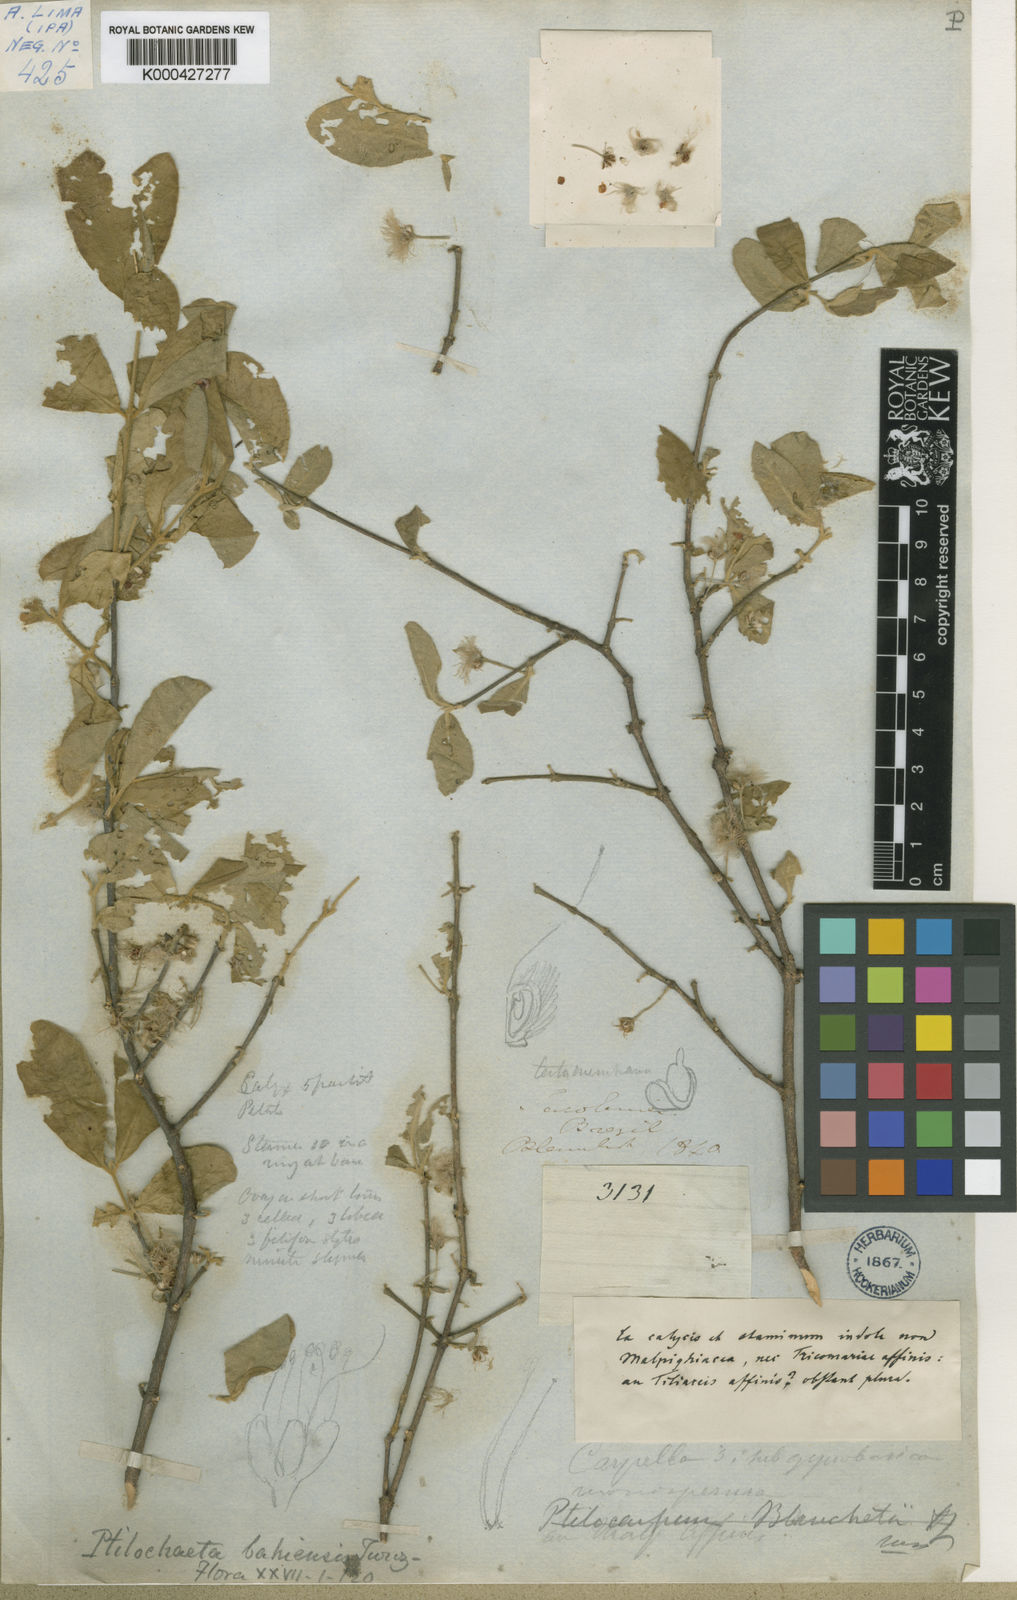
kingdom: Plantae
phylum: Tracheophyta
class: Magnoliopsida
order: Malpighiales
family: Malpighiaceae
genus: Ptilochaeta
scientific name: Ptilochaeta bahiensis
